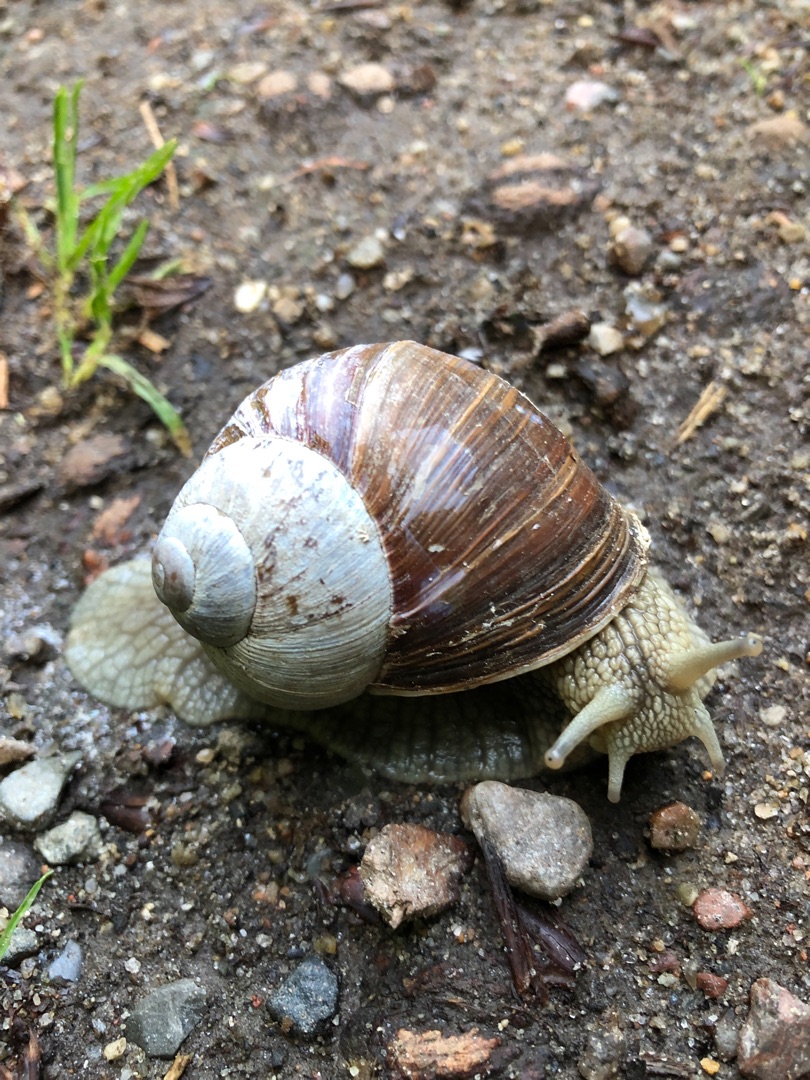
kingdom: Animalia
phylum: Mollusca
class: Gastropoda
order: Stylommatophora
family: Helicidae
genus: Helix
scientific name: Helix pomatia
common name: Vinbjergsnegl
